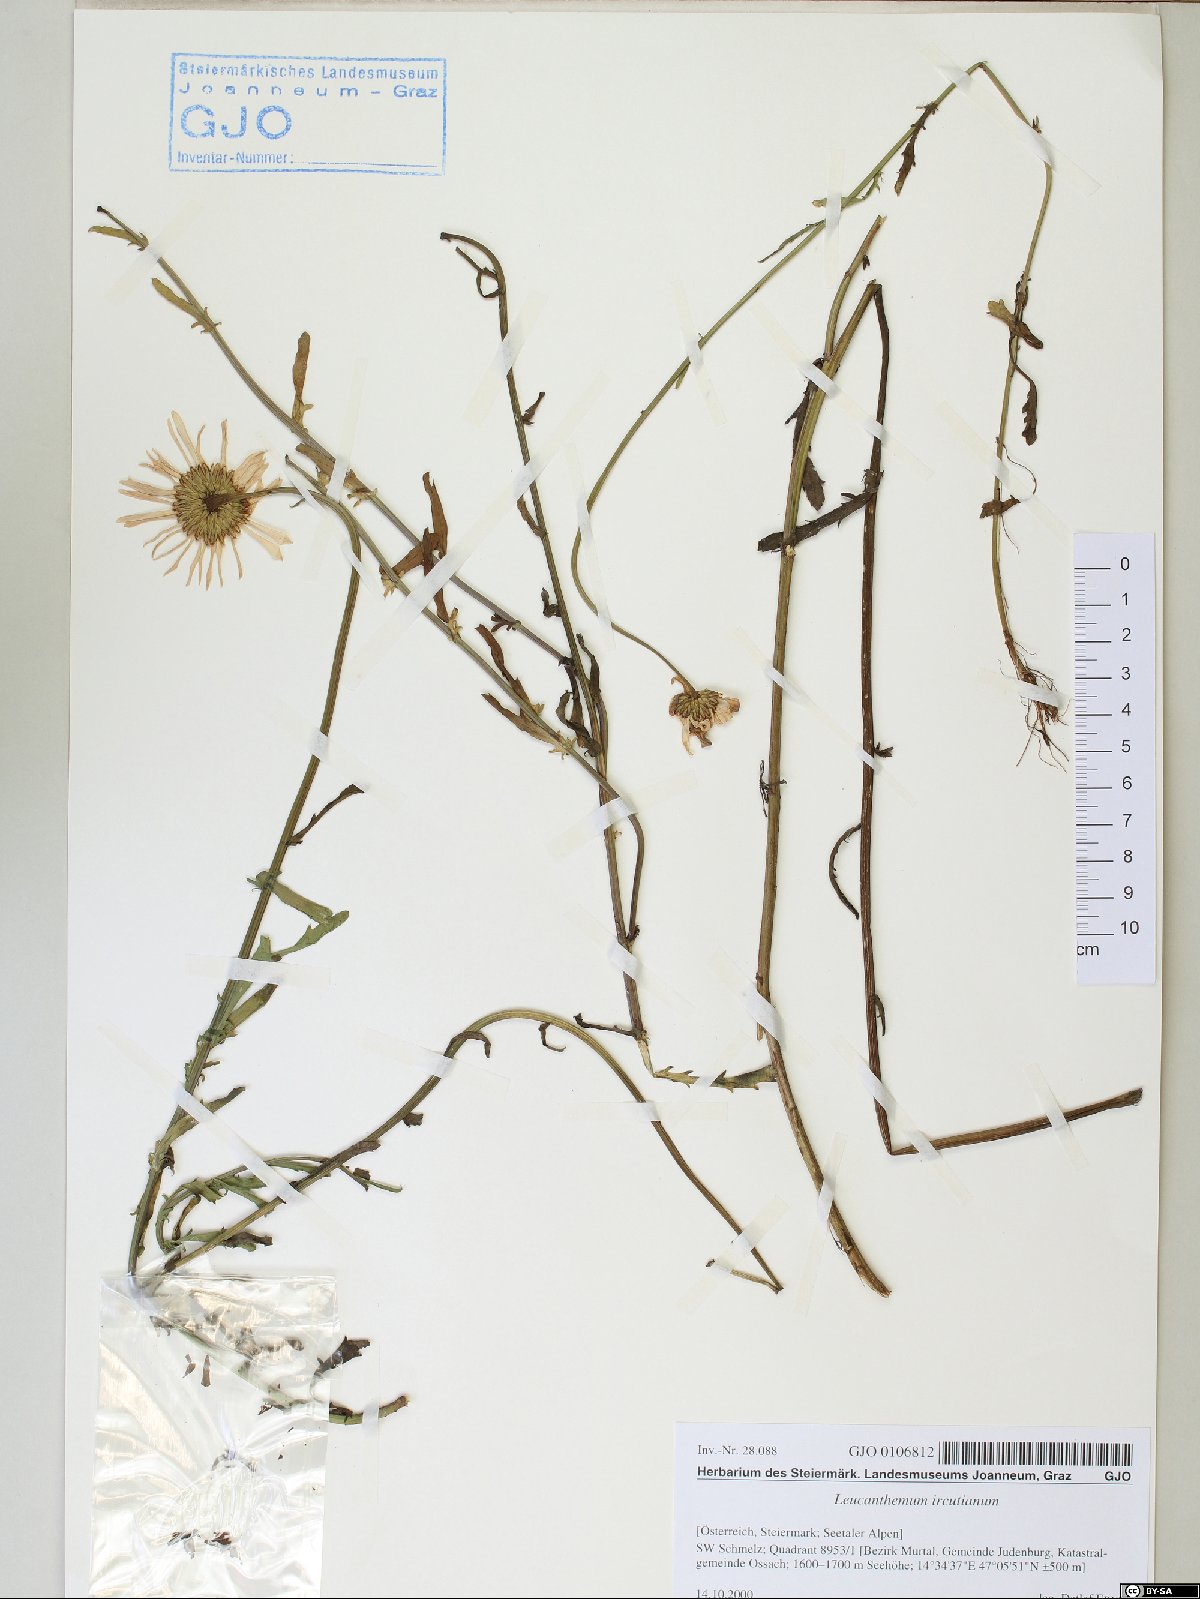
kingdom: Plantae
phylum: Tracheophyta
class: Magnoliopsida
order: Asterales
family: Asteraceae
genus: Leucanthemum
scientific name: Leucanthemum ircutianum
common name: Daisy
